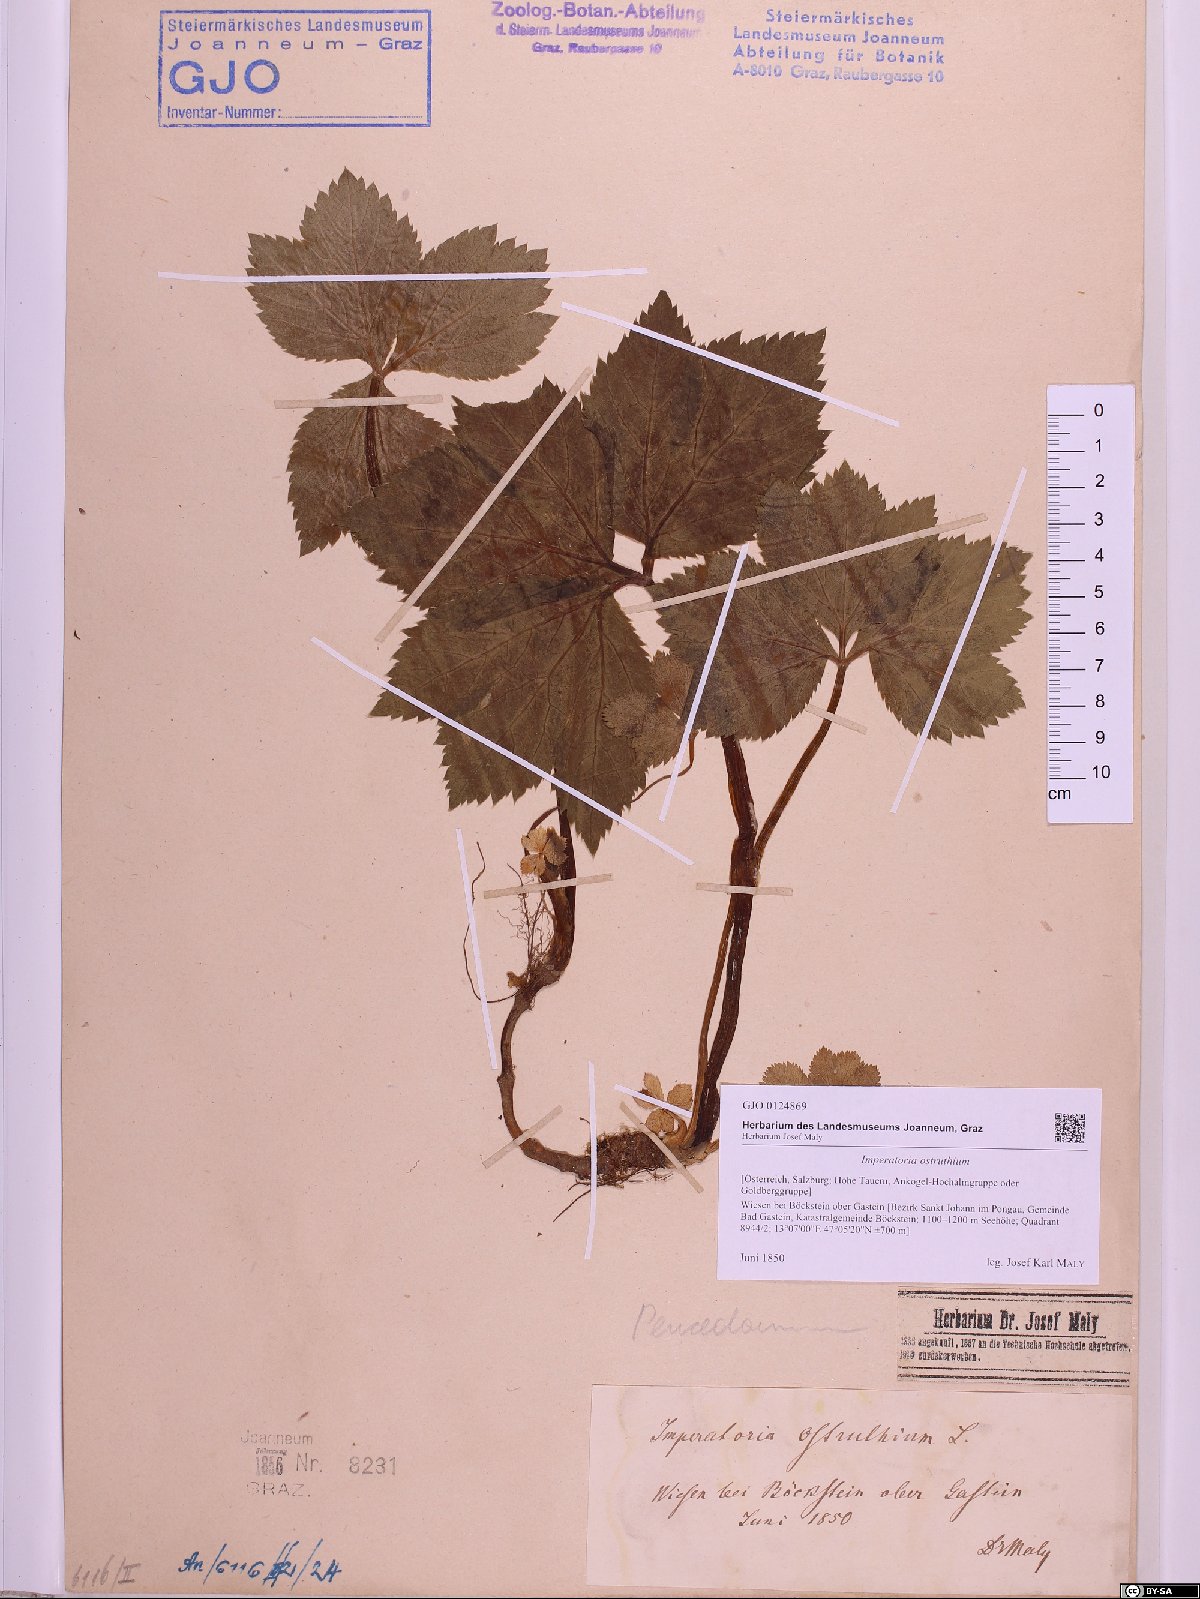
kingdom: Plantae
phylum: Tracheophyta
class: Magnoliopsida
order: Apiales
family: Apiaceae
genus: Imperatoria
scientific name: Imperatoria ostruthium
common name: Masterwort
